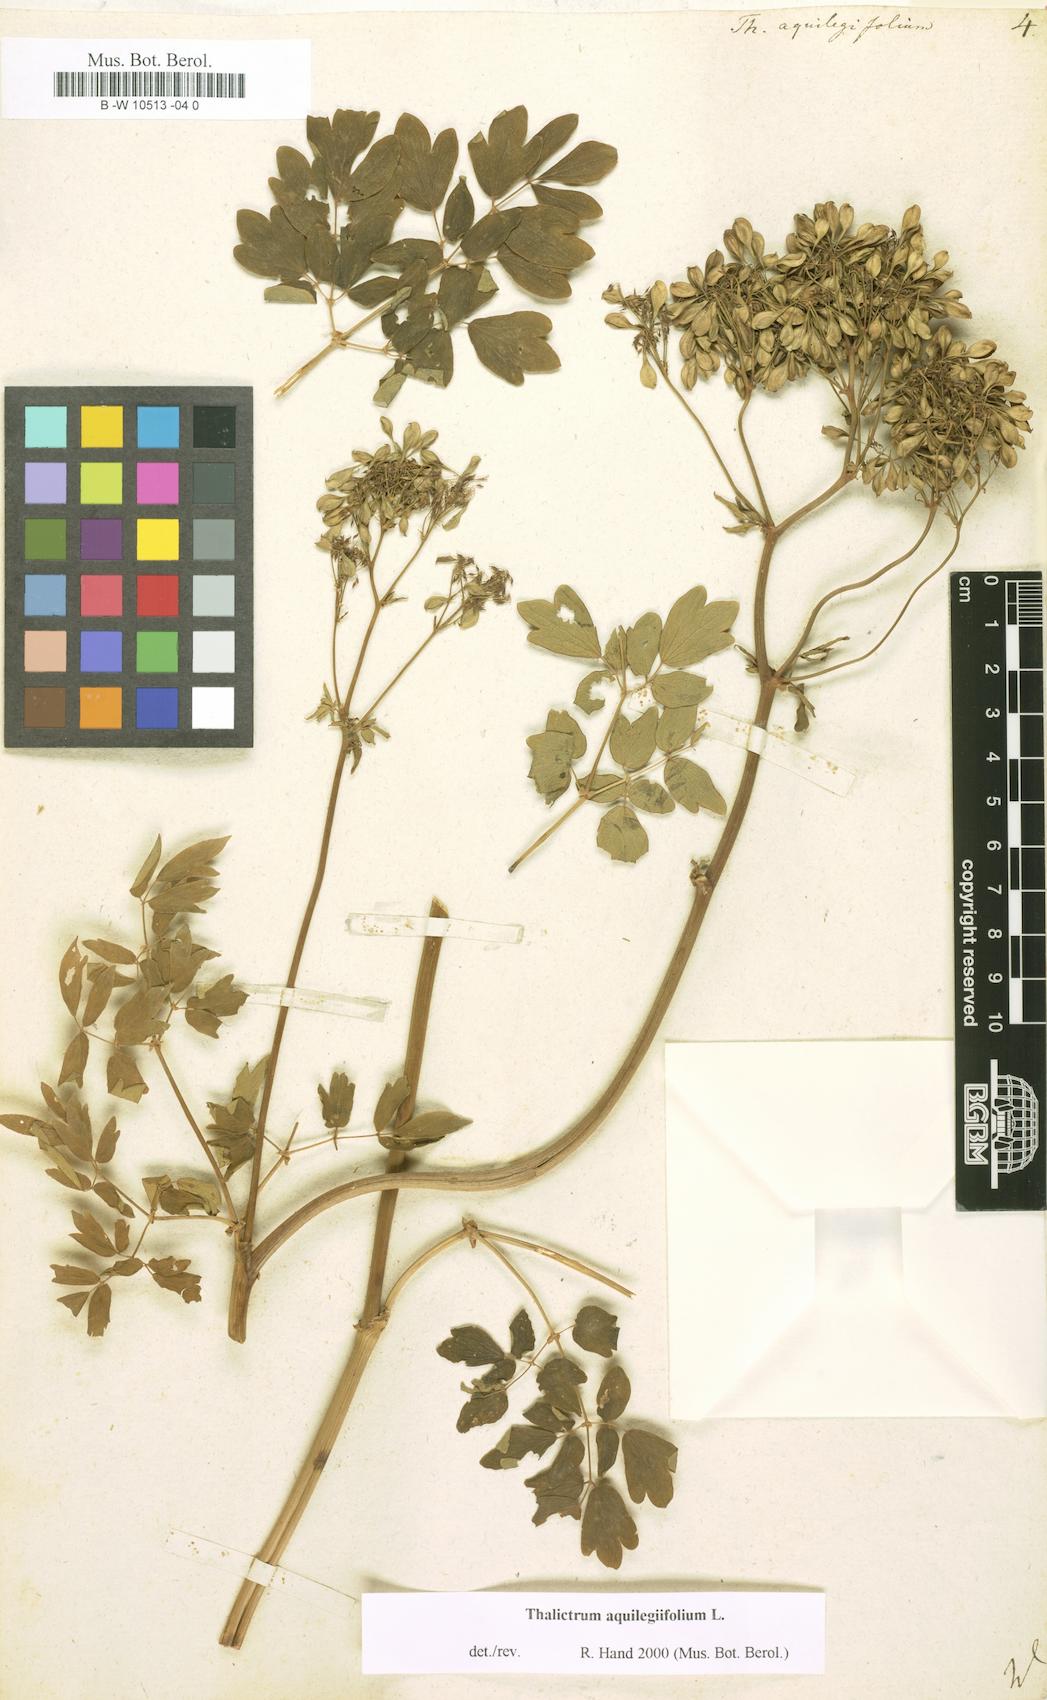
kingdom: Plantae
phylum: Tracheophyta
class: Magnoliopsida
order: Ranunculales
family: Ranunculaceae
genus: Thalictrum
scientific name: Thalictrum aquilegiifolium
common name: French meadow-rue
